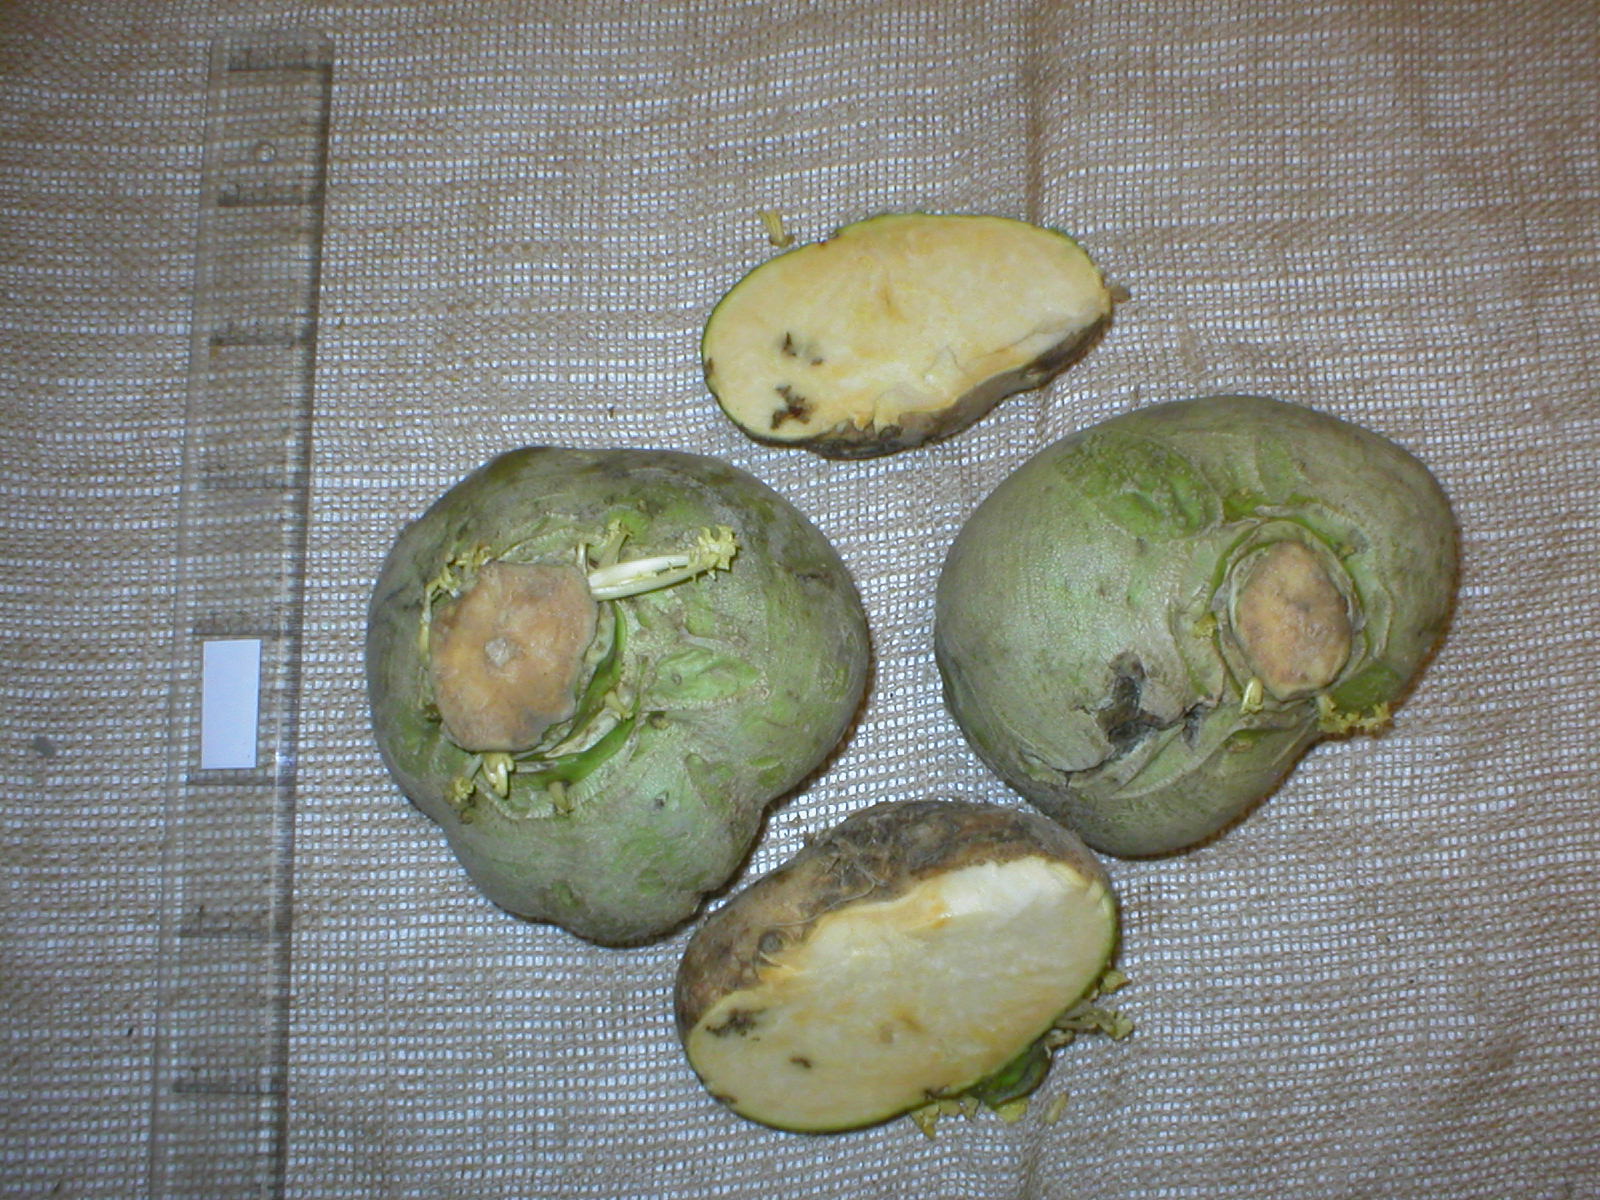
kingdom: Plantae
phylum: Tracheophyta
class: Magnoliopsida
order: Brassicales
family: Brassicaceae
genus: Brassica
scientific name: Brassica napus
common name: Rape
